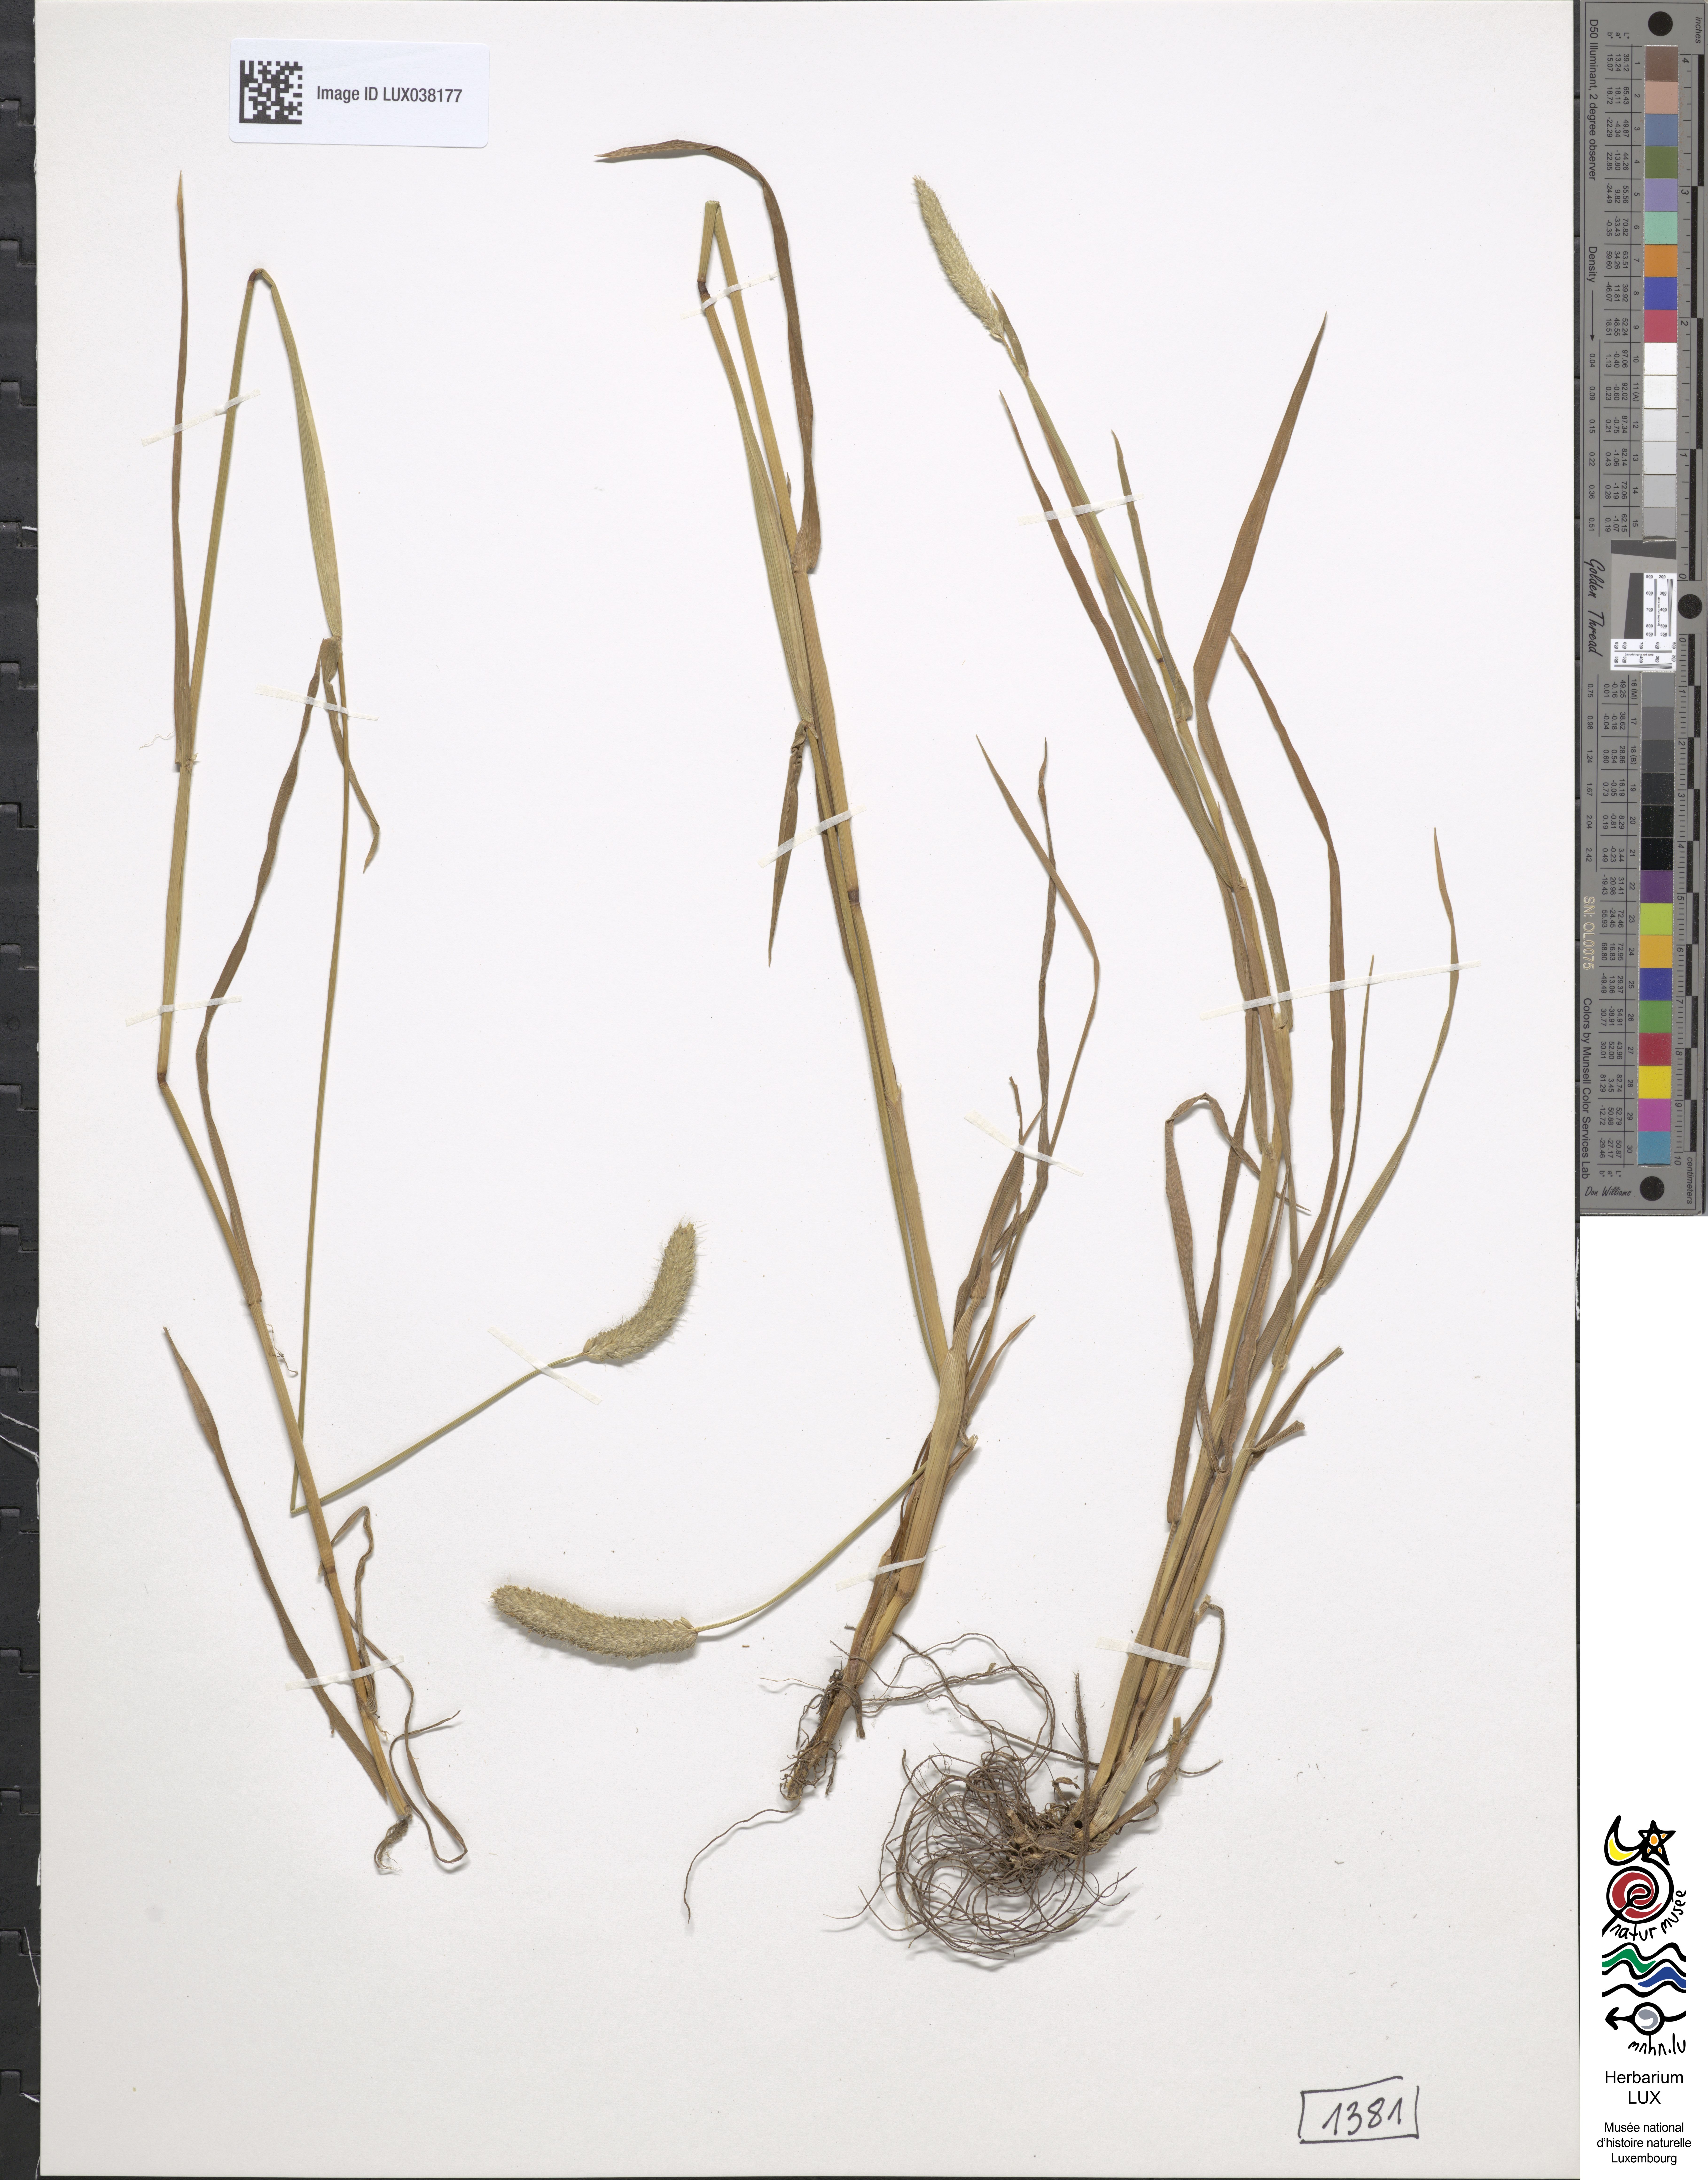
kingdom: Plantae
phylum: Tracheophyta
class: Liliopsida
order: Poales
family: Poaceae
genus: Alopecurus
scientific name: Alopecurus arundinaceus
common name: Creeping meadow foxtail
